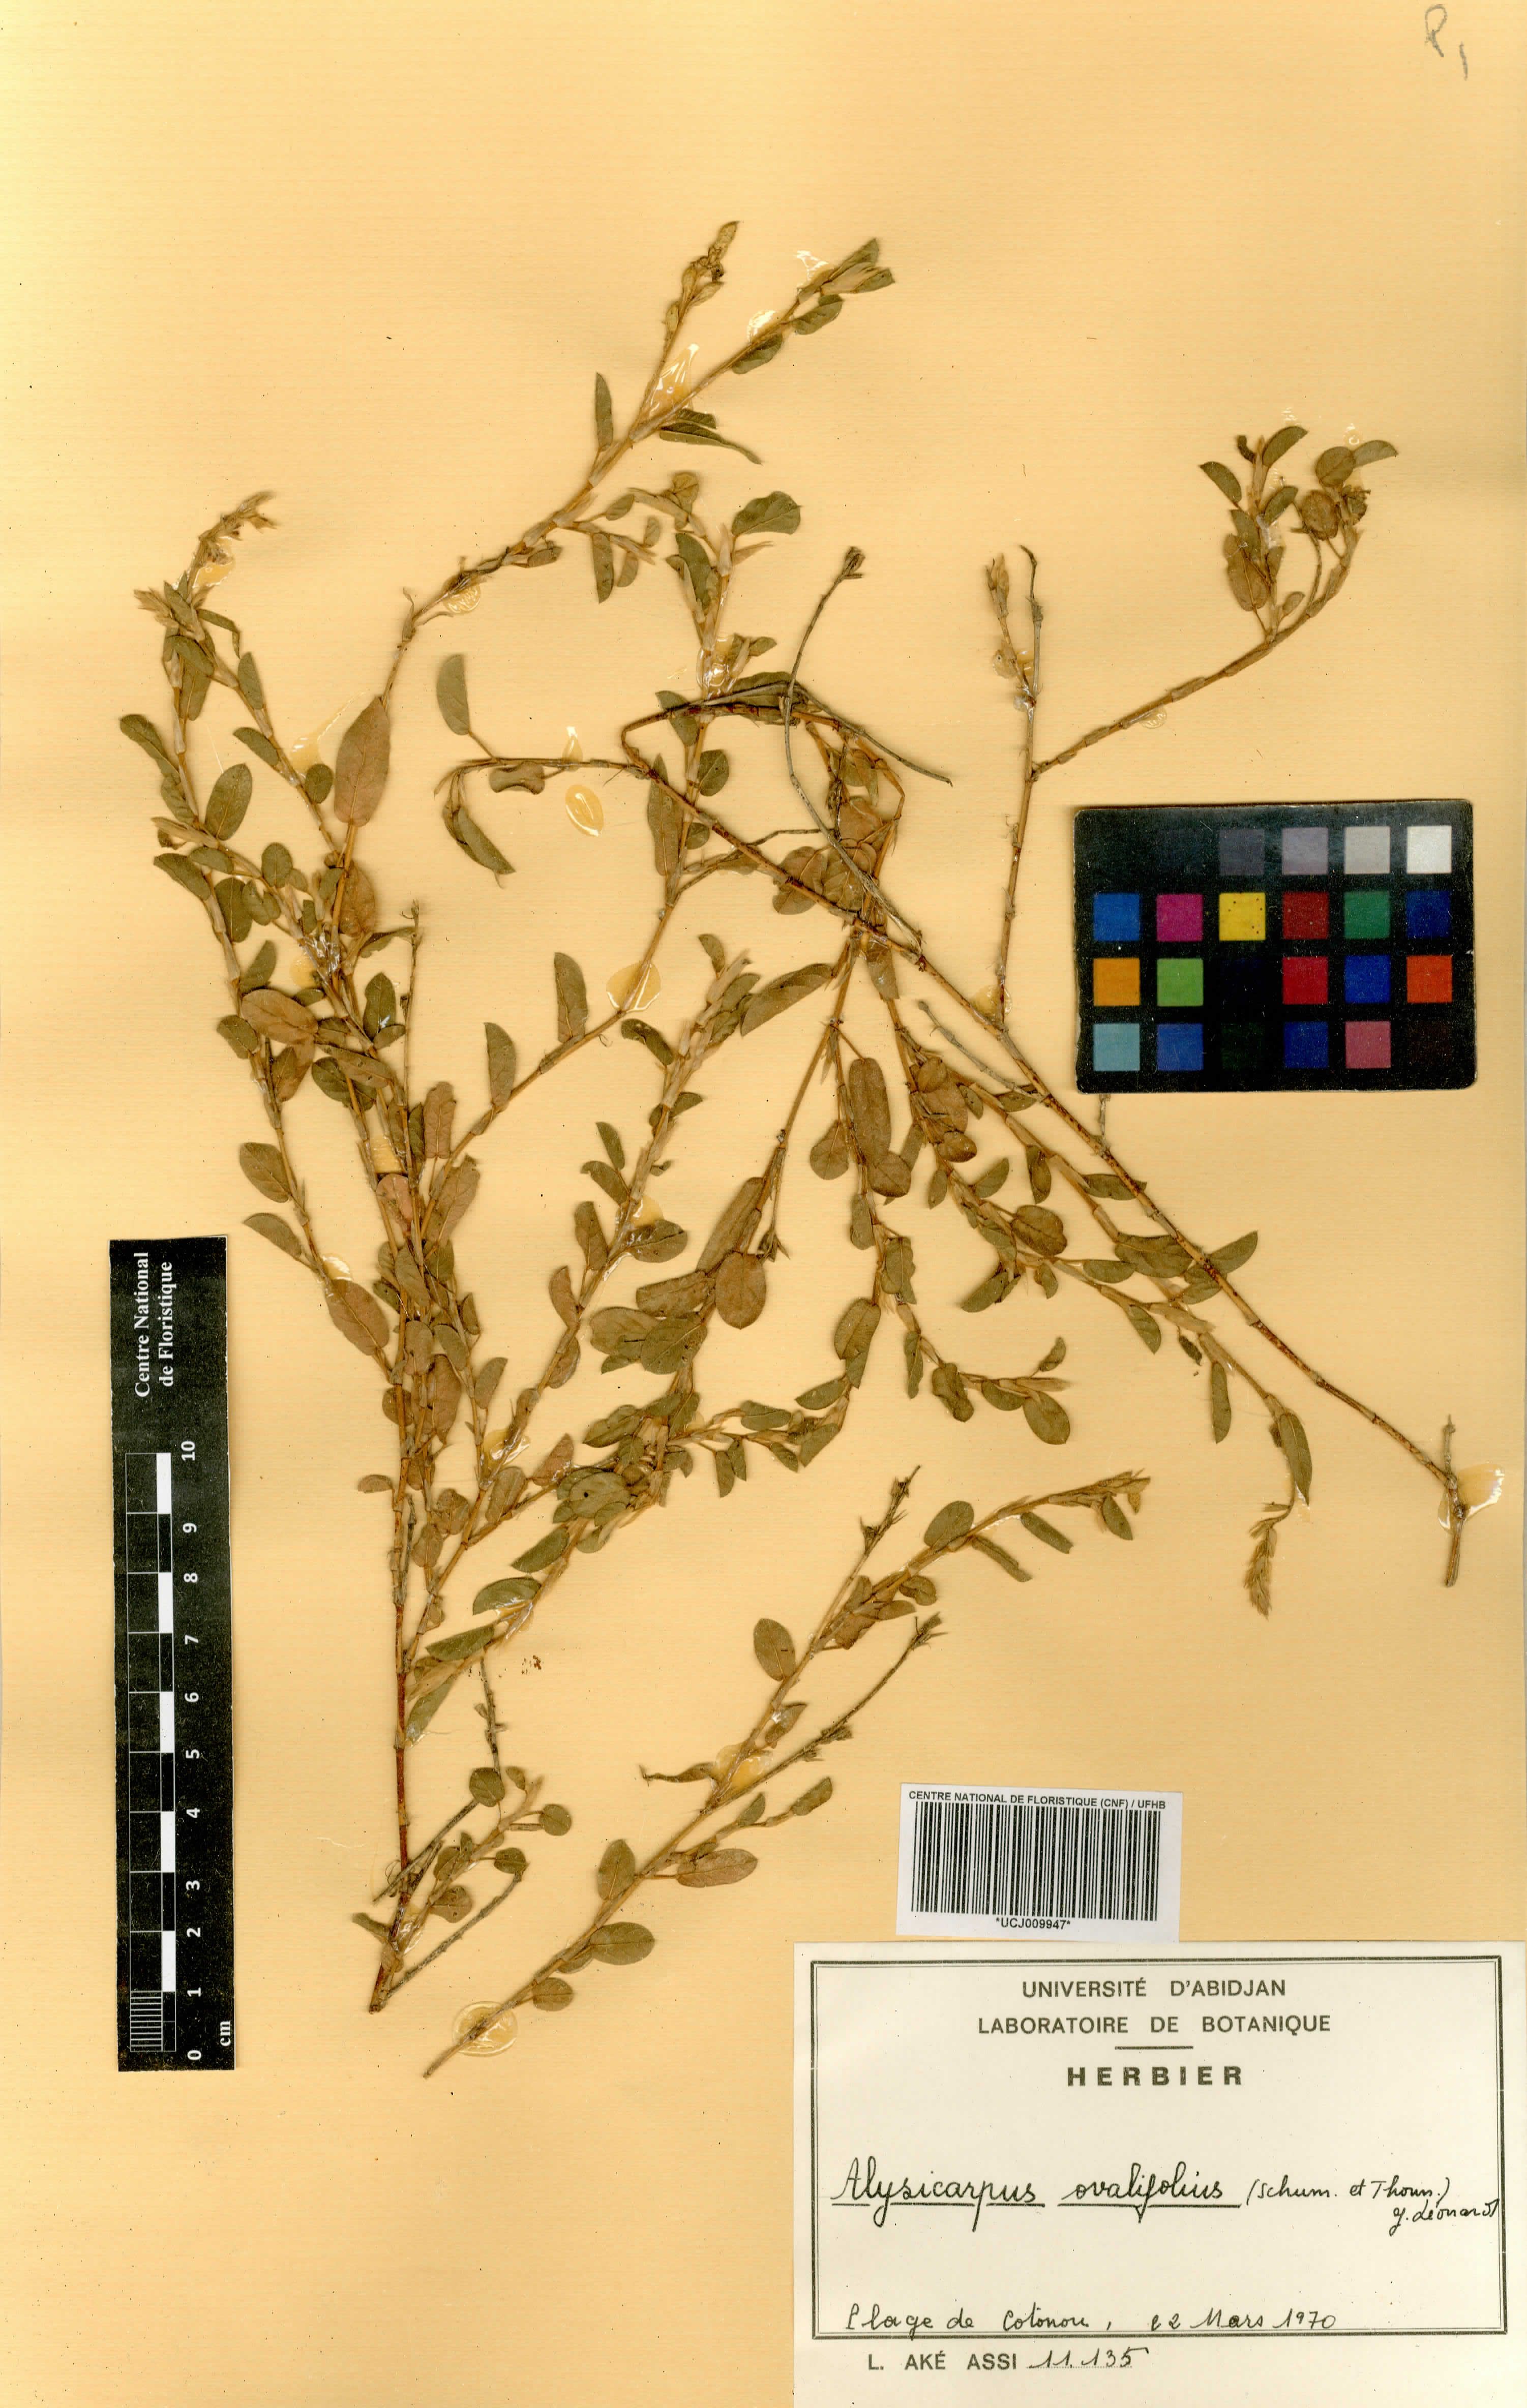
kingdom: Plantae
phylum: Tracheophyta
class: Magnoliopsida
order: Fabales
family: Fabaceae
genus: Alysicarpus
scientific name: Alysicarpus ovalifolius
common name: Alyce clover
